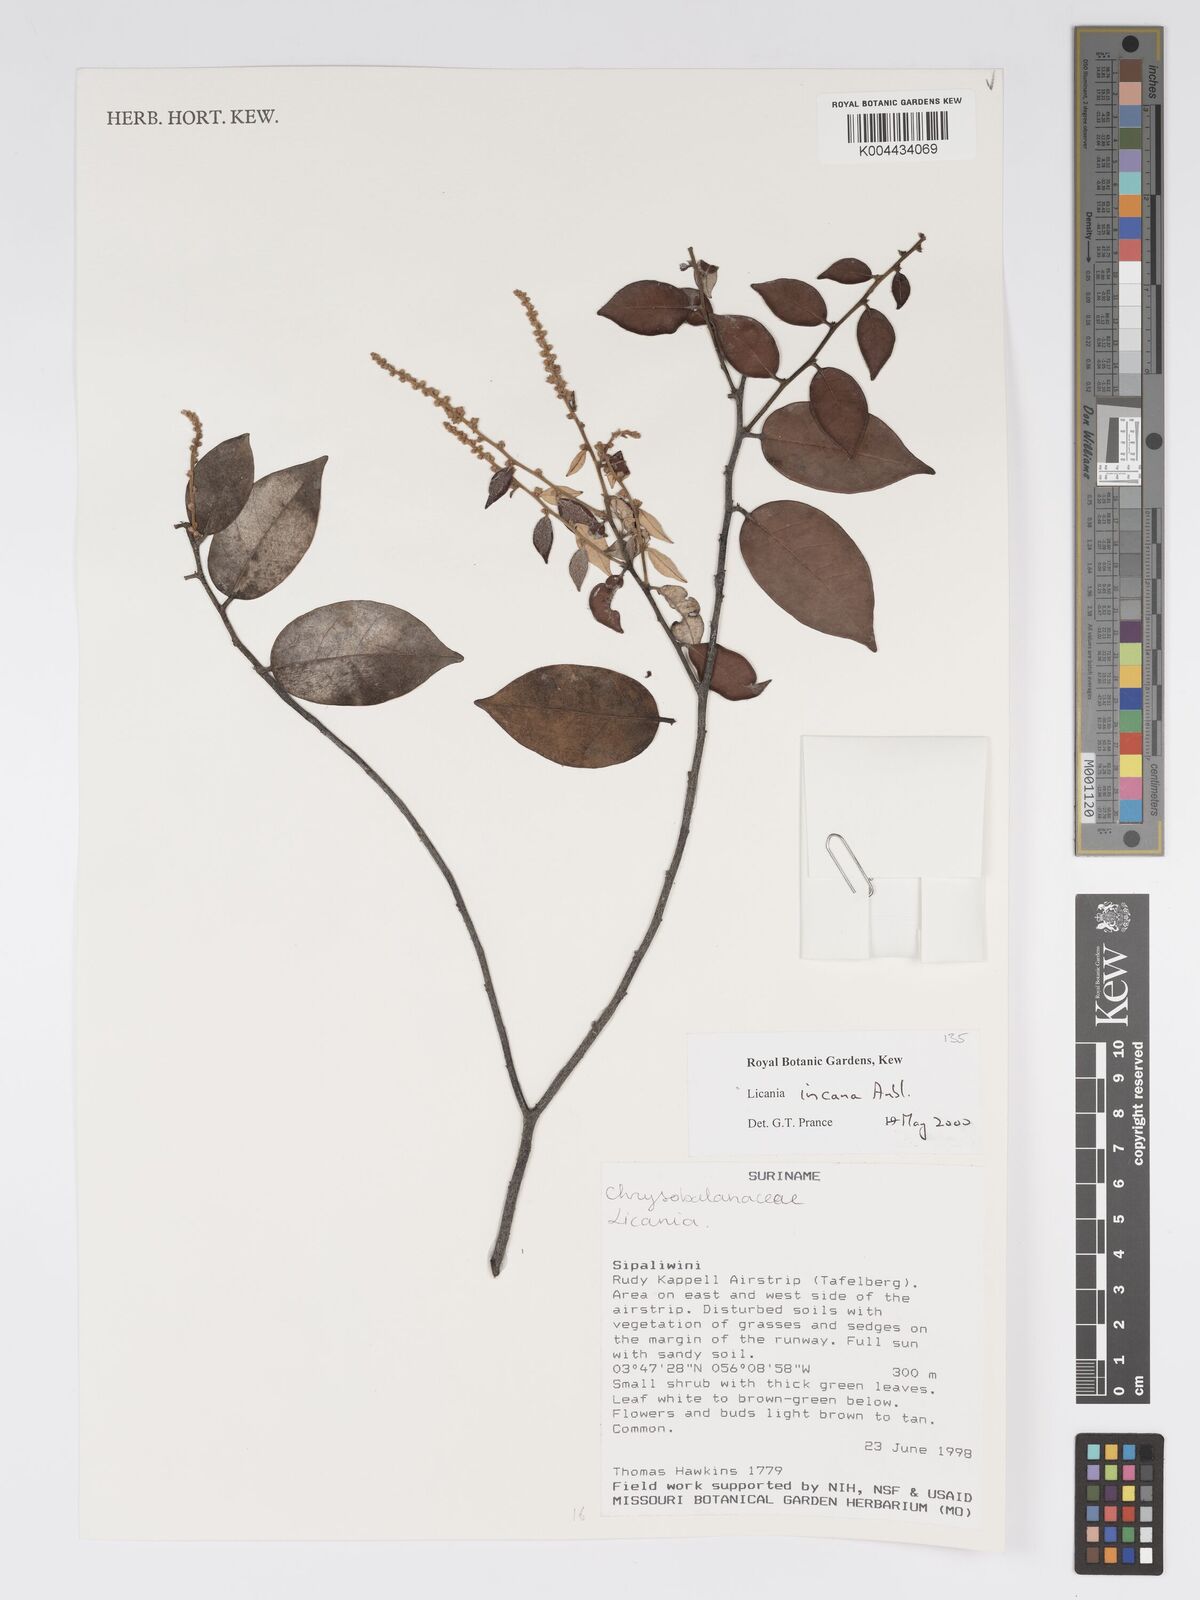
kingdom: Plantae
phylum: Tracheophyta
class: Magnoliopsida
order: Malpighiales
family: Chrysobalanaceae
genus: Licania
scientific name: Licania incana
